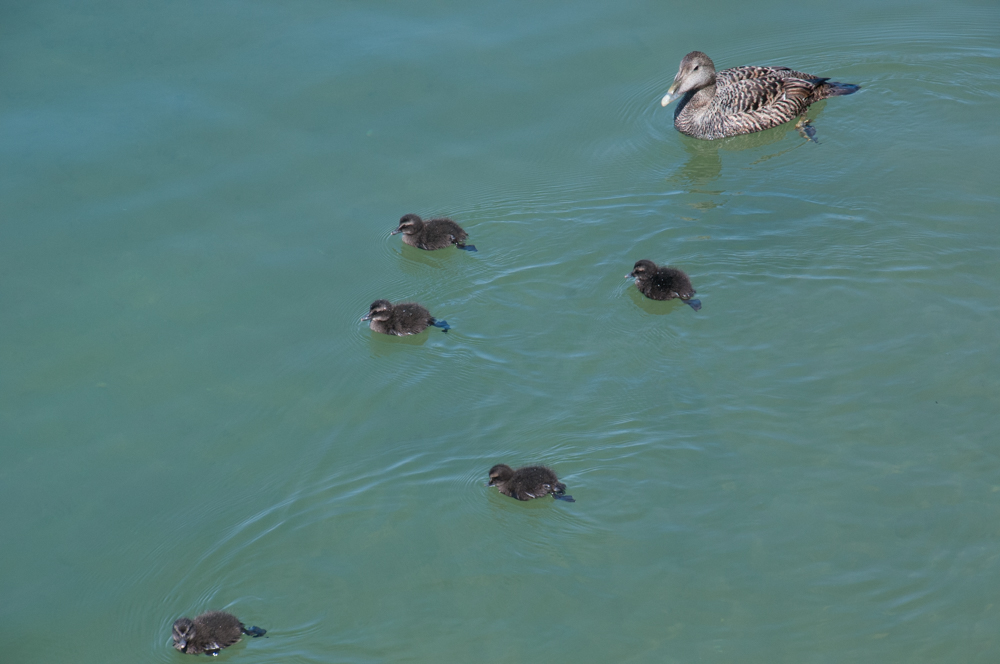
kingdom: Animalia
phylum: Chordata
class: Aves
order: Anseriformes
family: Anatidae
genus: Somateria
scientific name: Somateria mollissima
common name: Common eider
